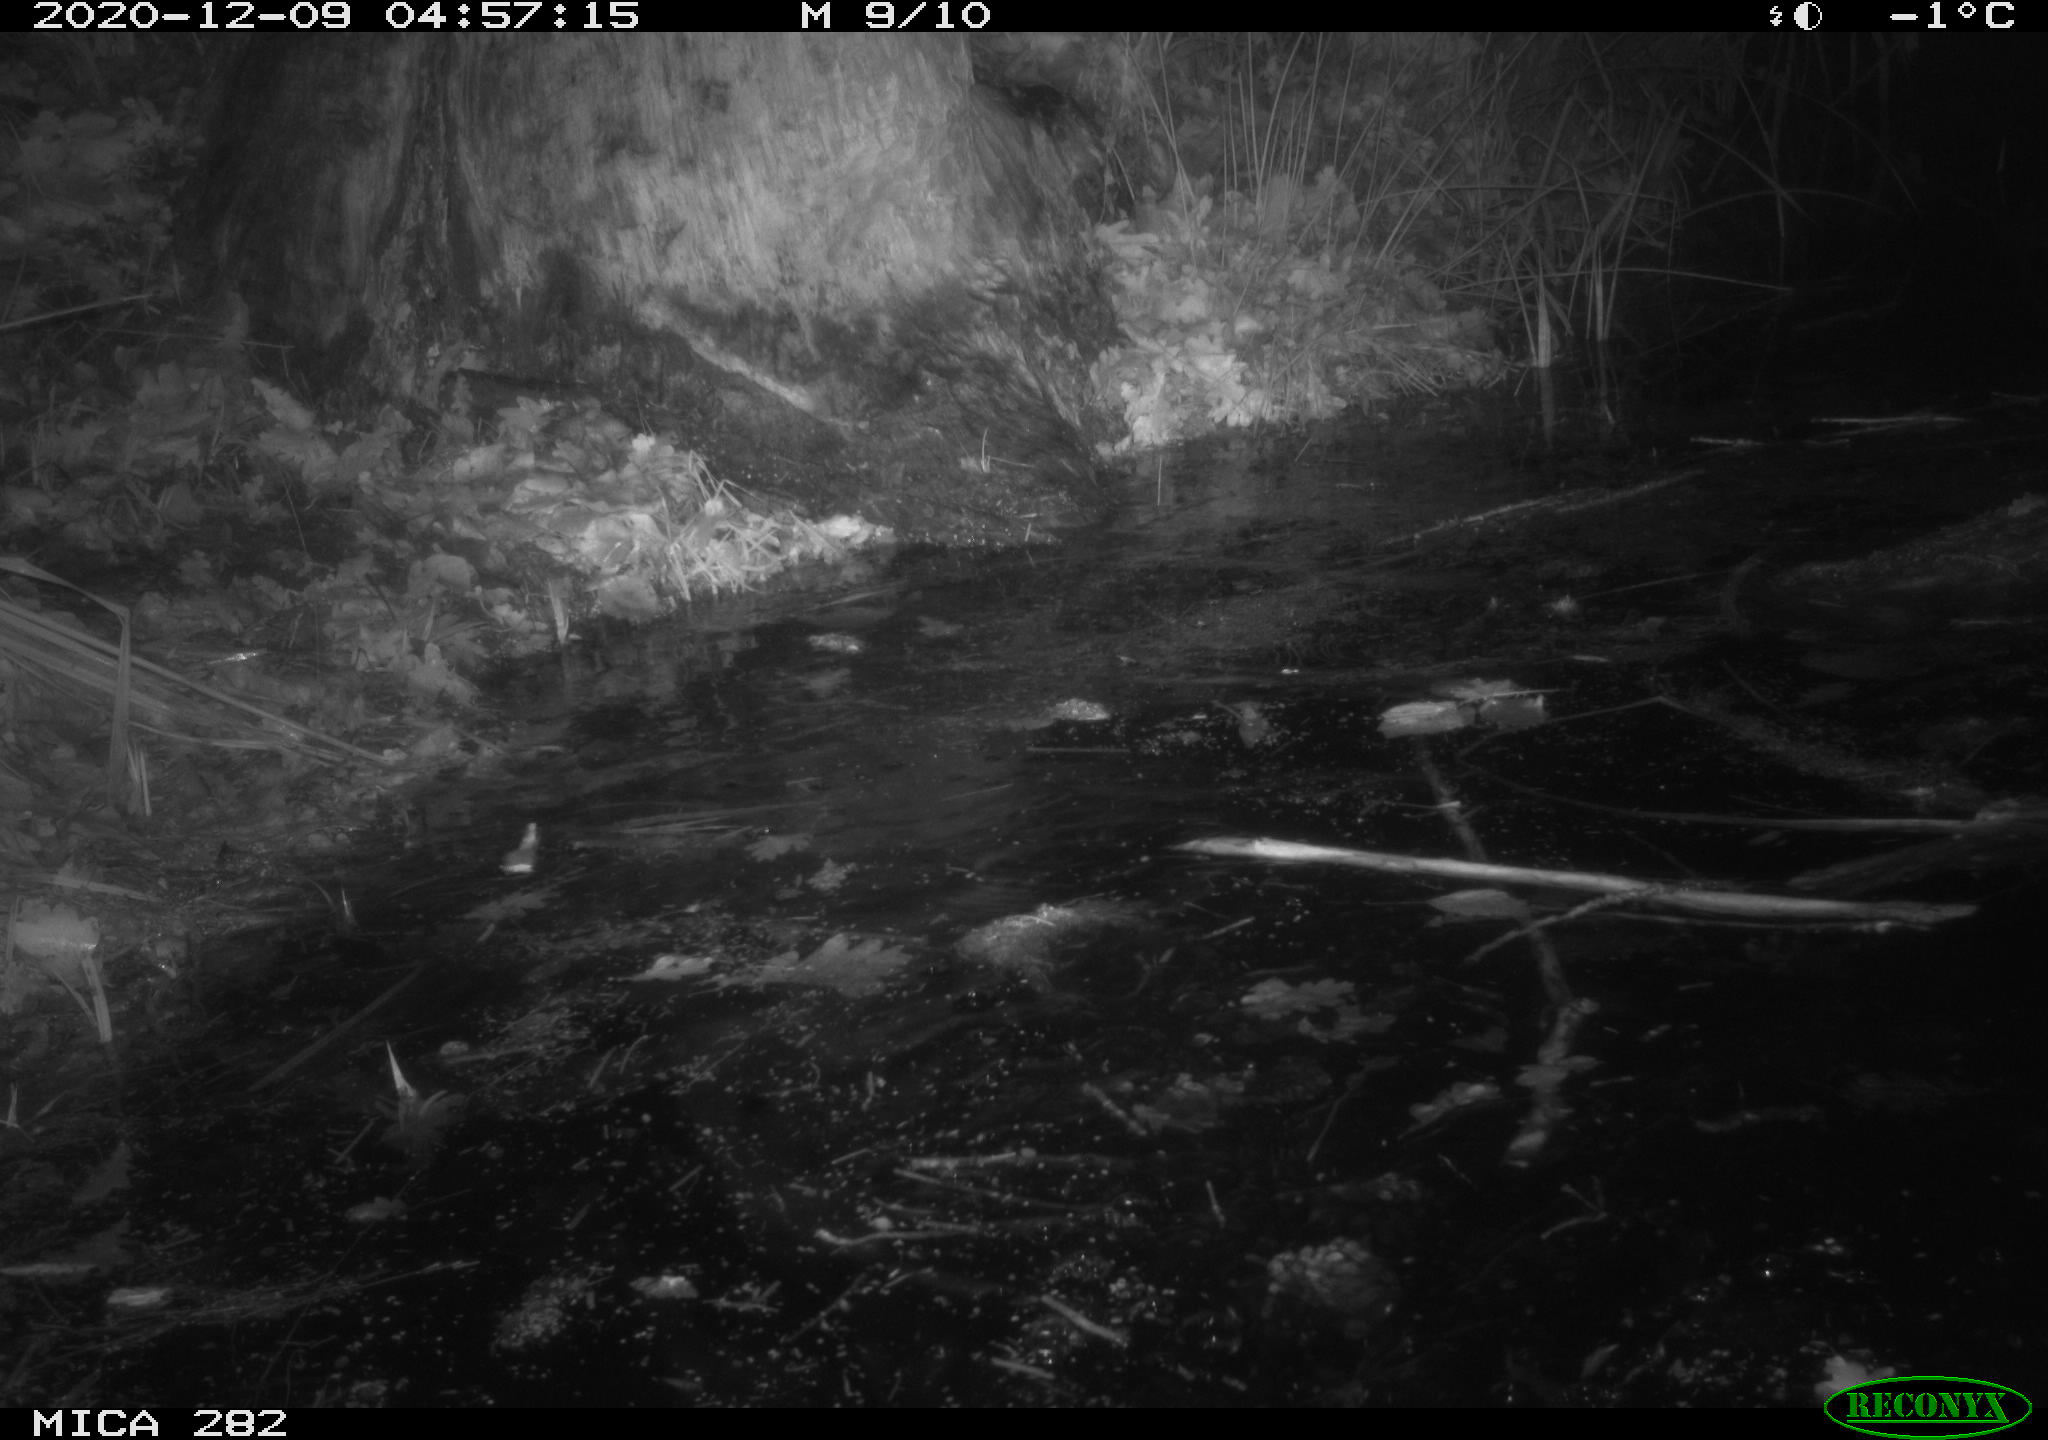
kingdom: Animalia
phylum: Chordata
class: Mammalia
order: Rodentia
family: Castoridae
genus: Castor
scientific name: Castor fiber
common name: Eurasian beaver
